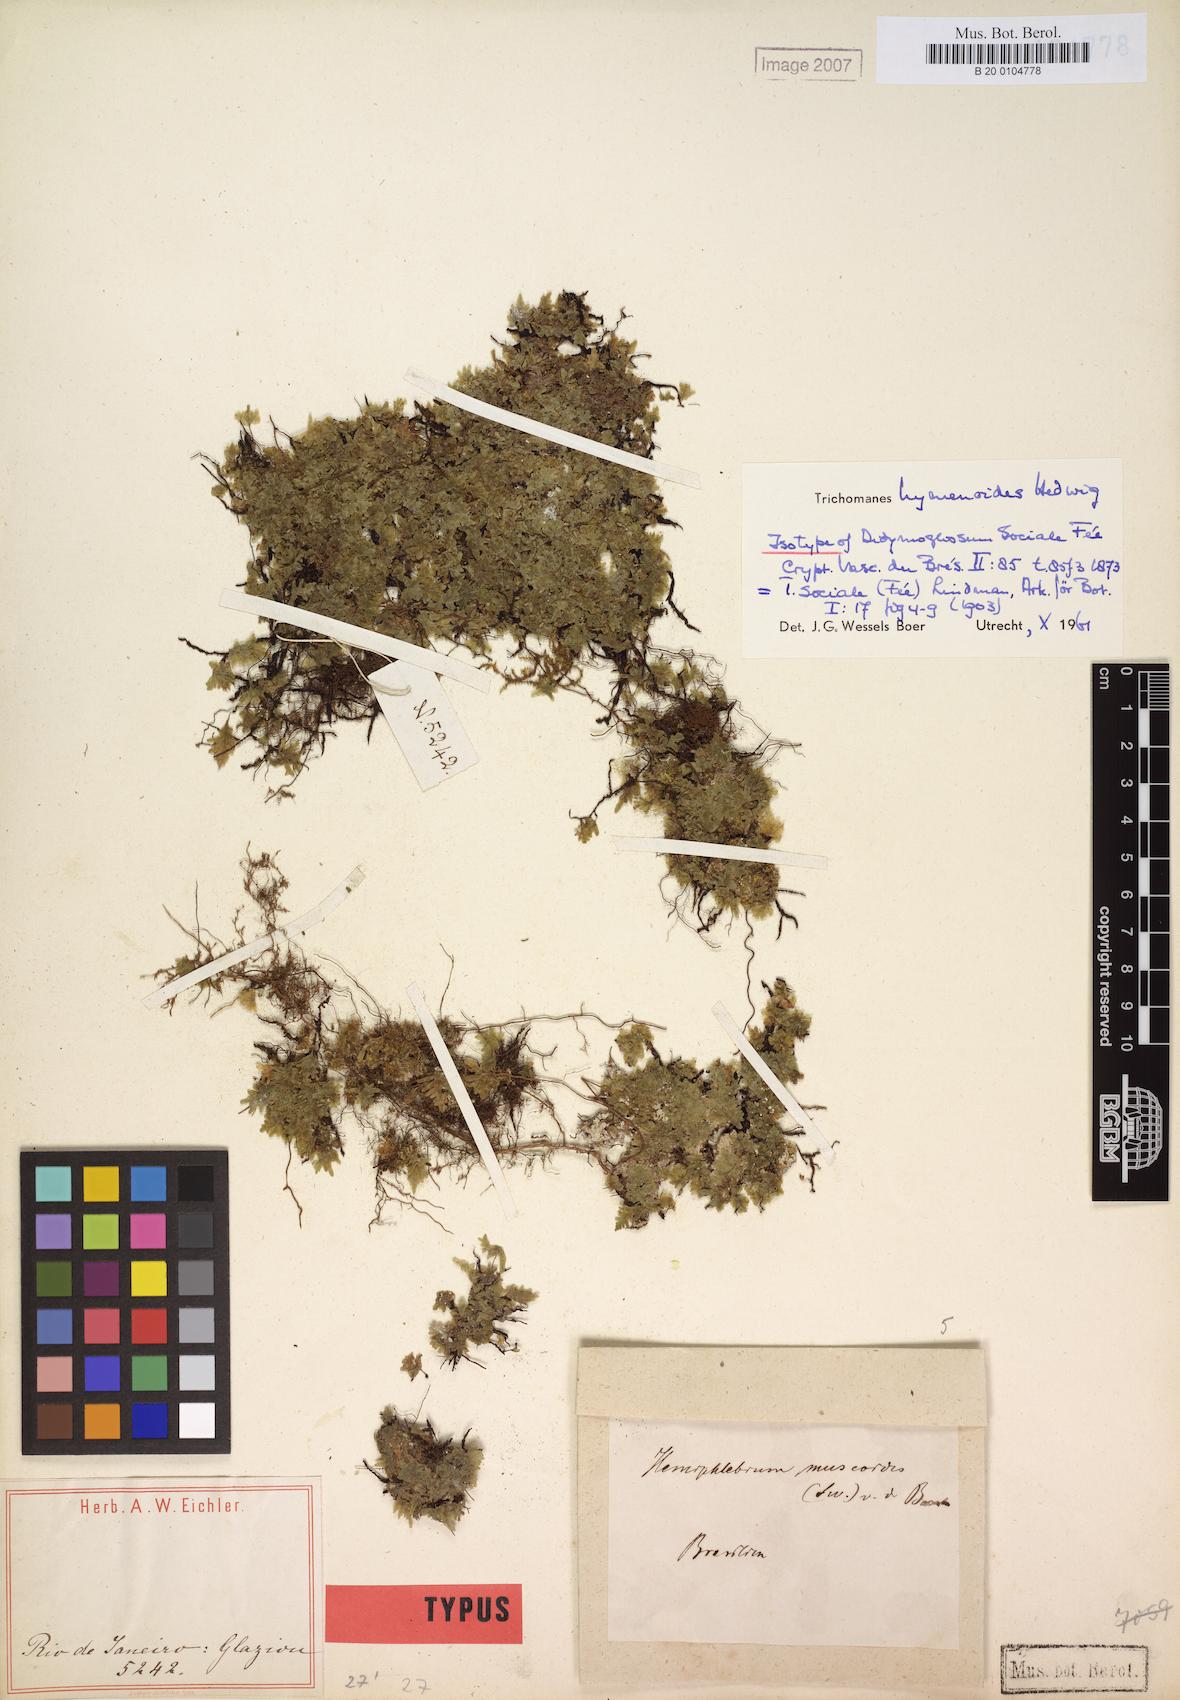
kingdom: Plantae
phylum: Tracheophyta
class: Polypodiopsida
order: Hymenophyllales
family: Hymenophyllaceae
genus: Didymoglossum
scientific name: Didymoglossum hymenoides
